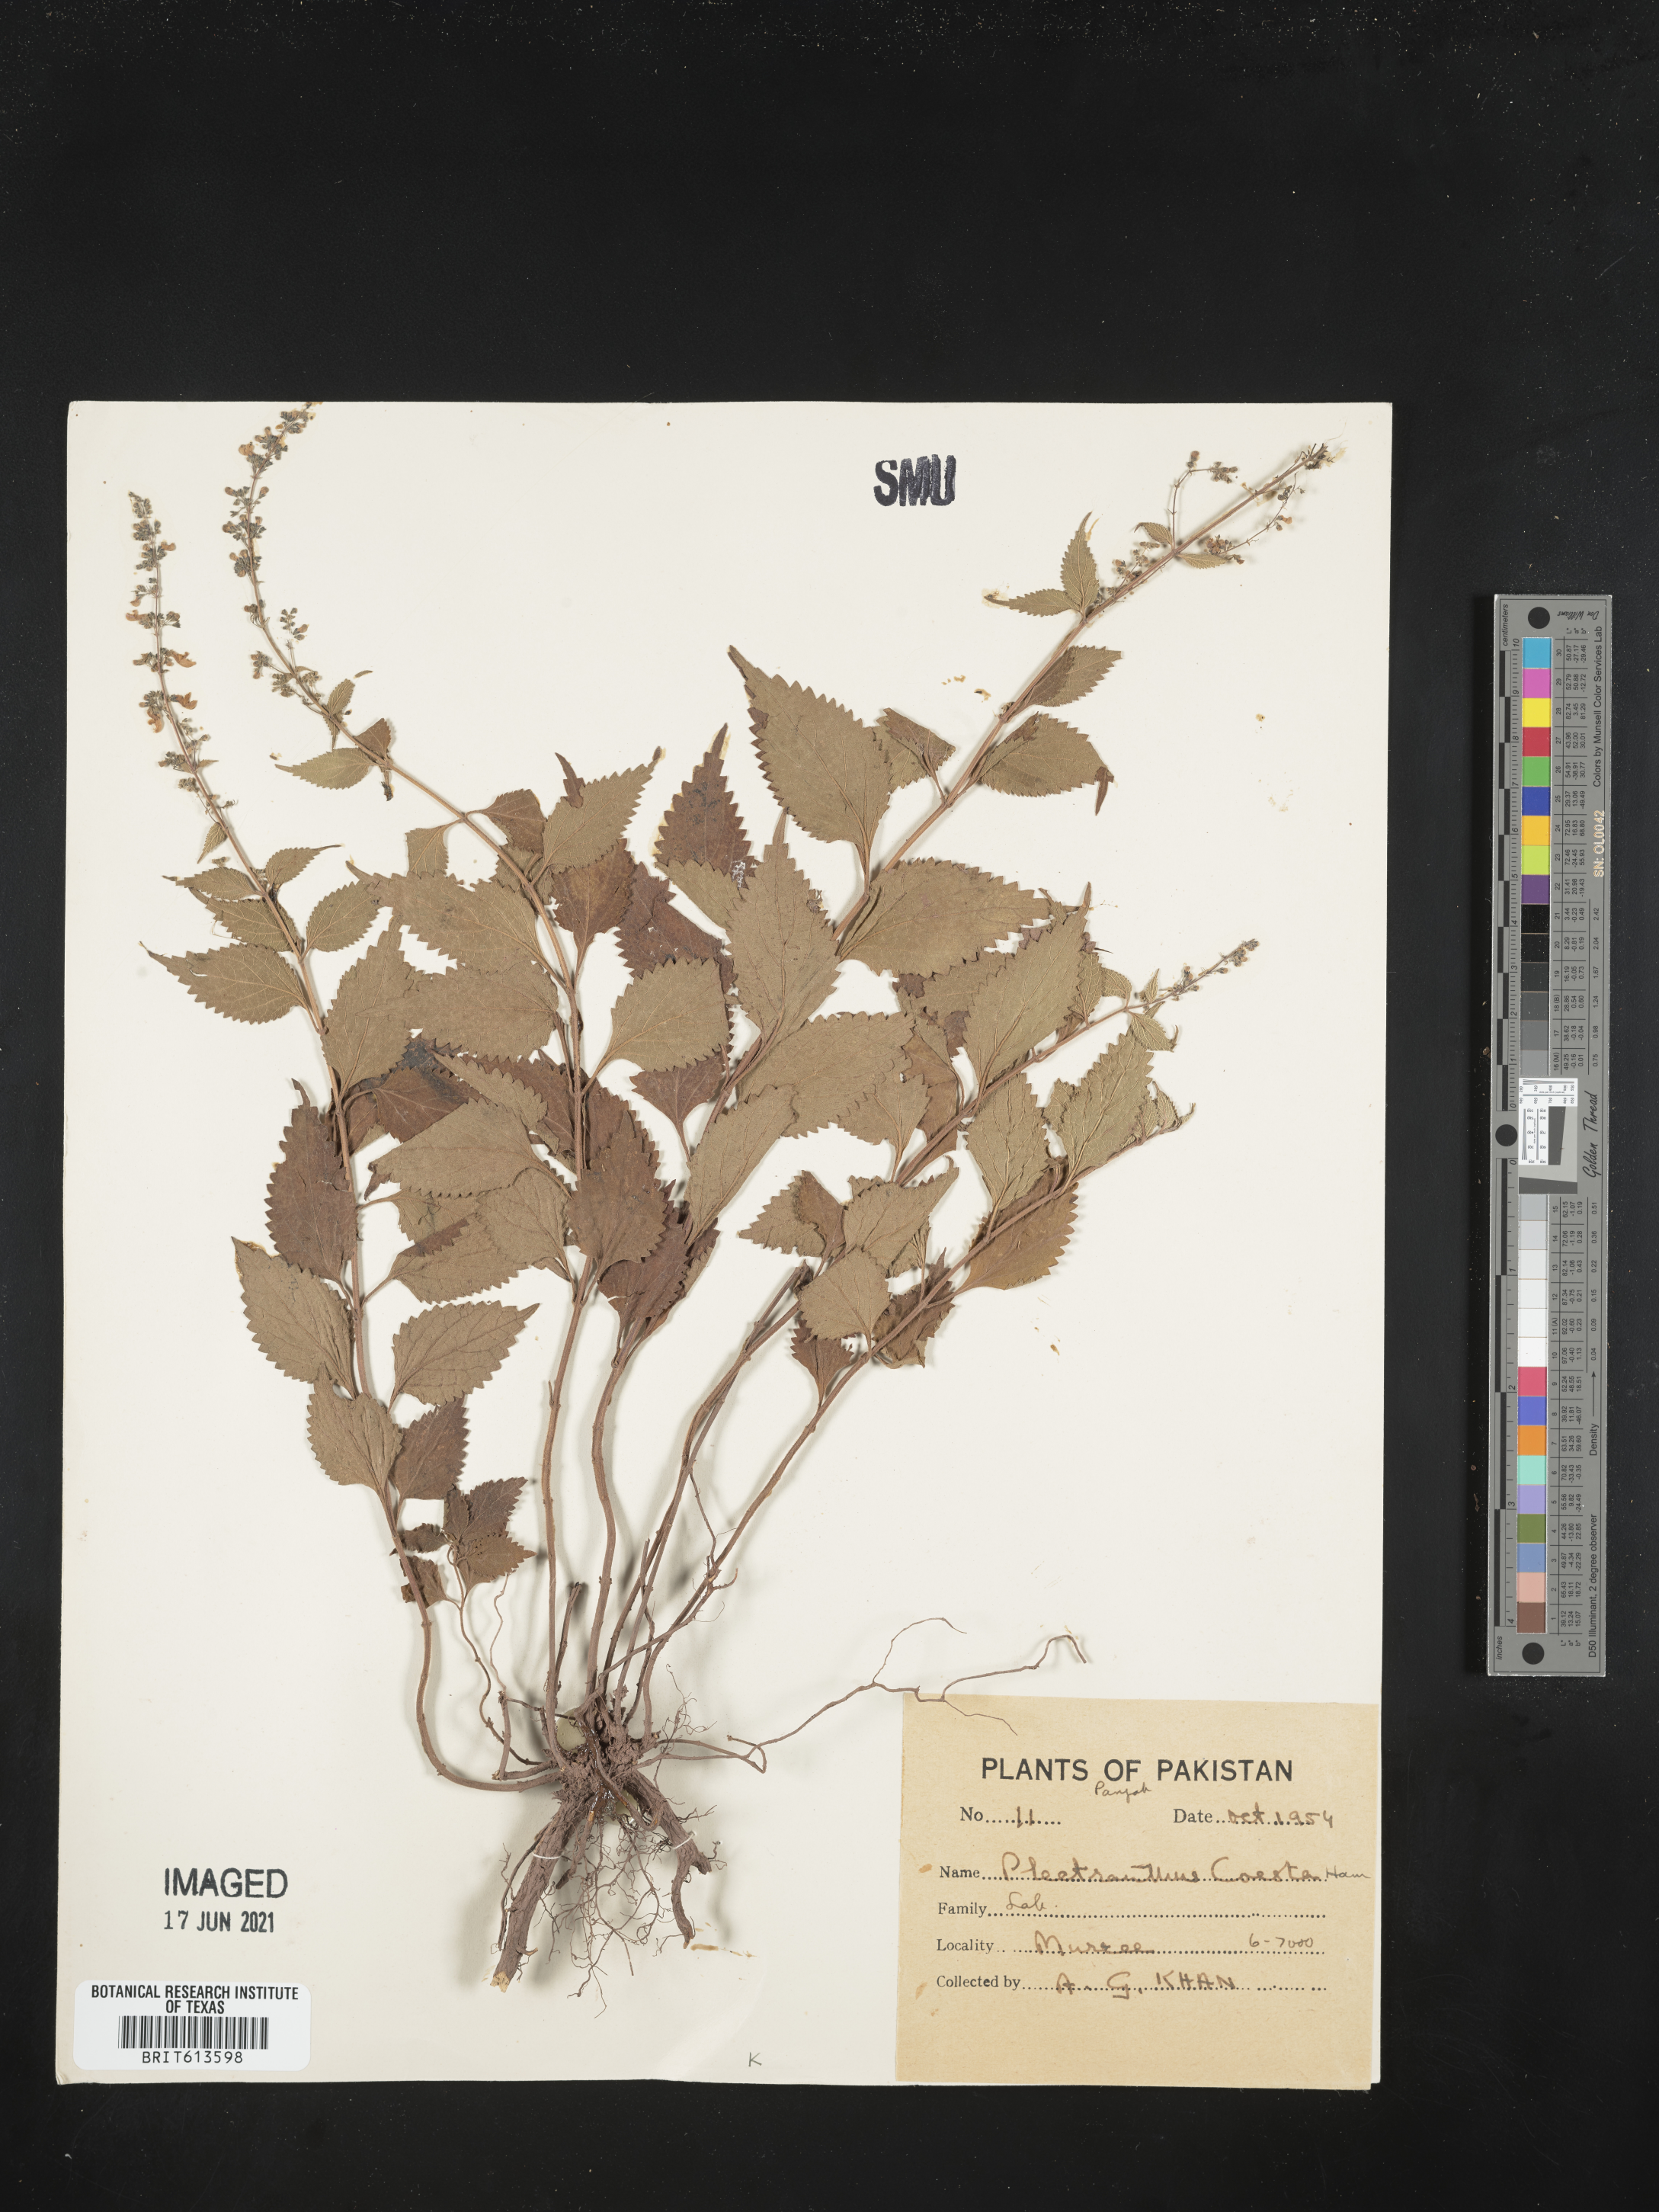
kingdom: Plantae
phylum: Tracheophyta
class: Magnoliopsida
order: Lamiales
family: Lamiaceae
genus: Isodon
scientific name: Isodon coetsa
